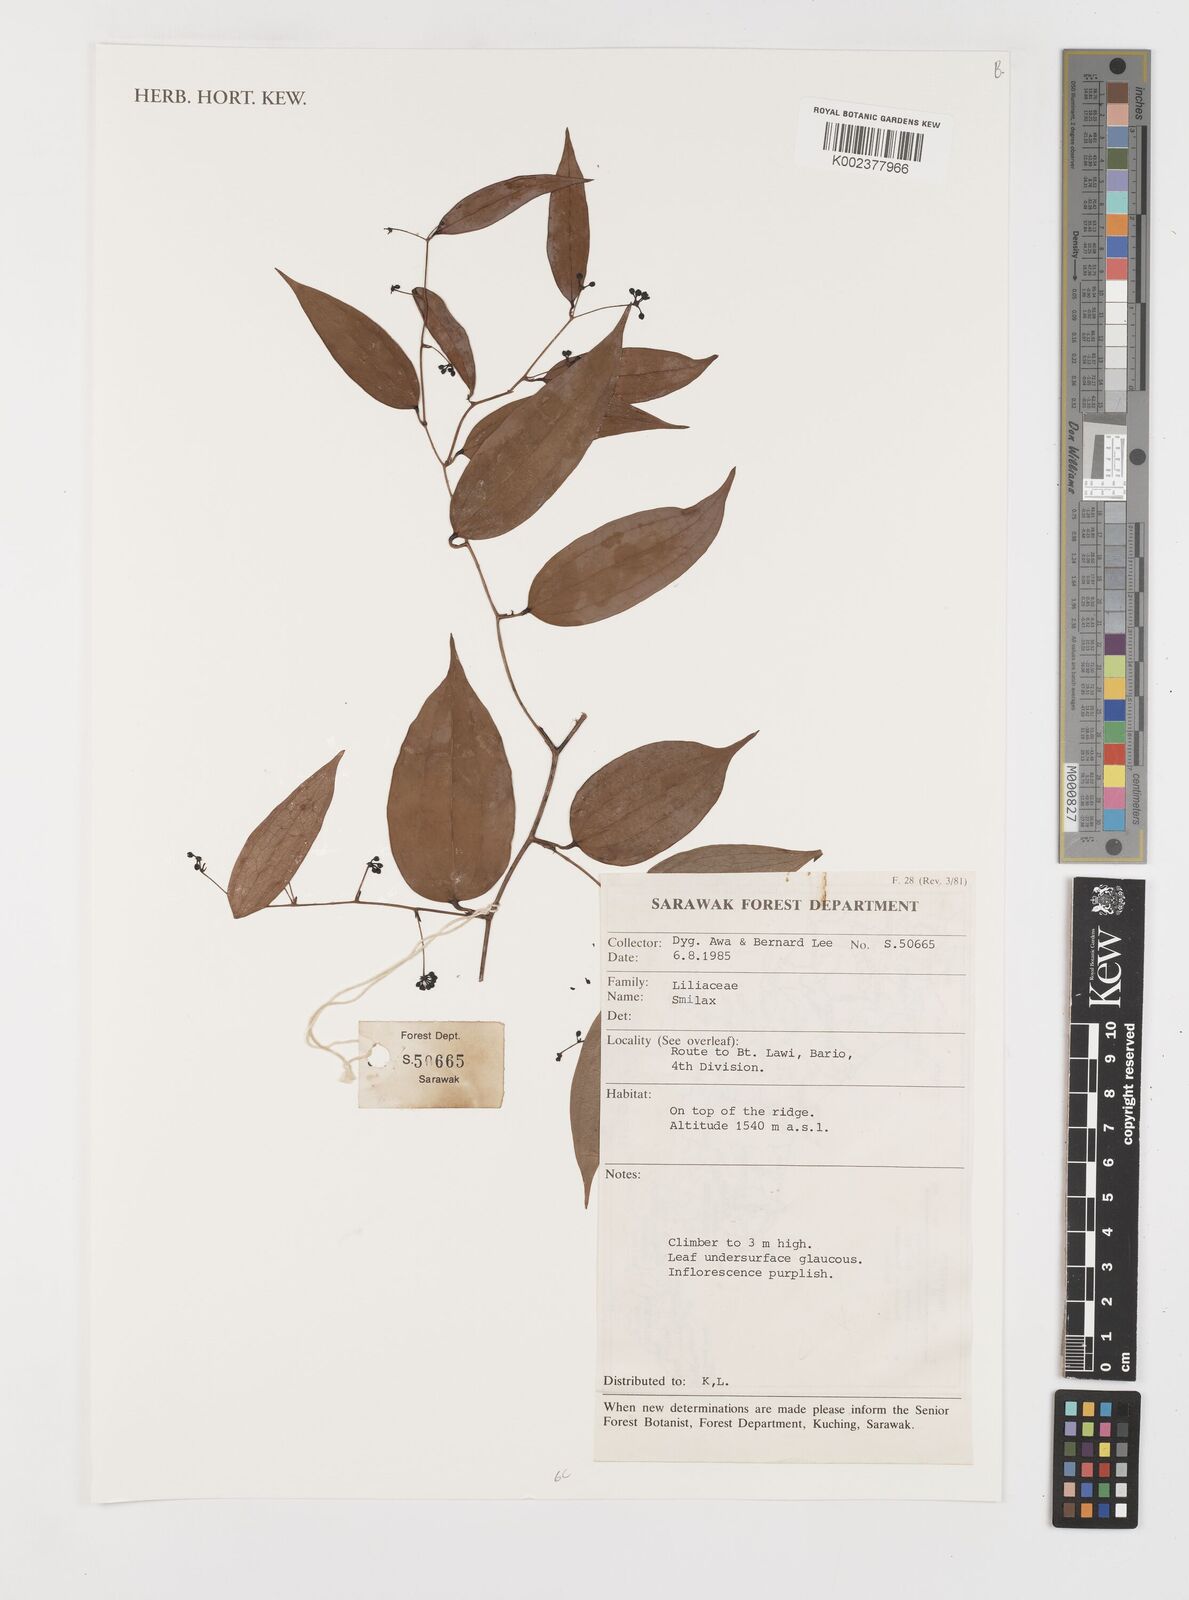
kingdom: Plantae
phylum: Tracheophyta
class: Liliopsida
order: Liliales
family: Smilacaceae
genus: Smilax
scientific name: Smilax
